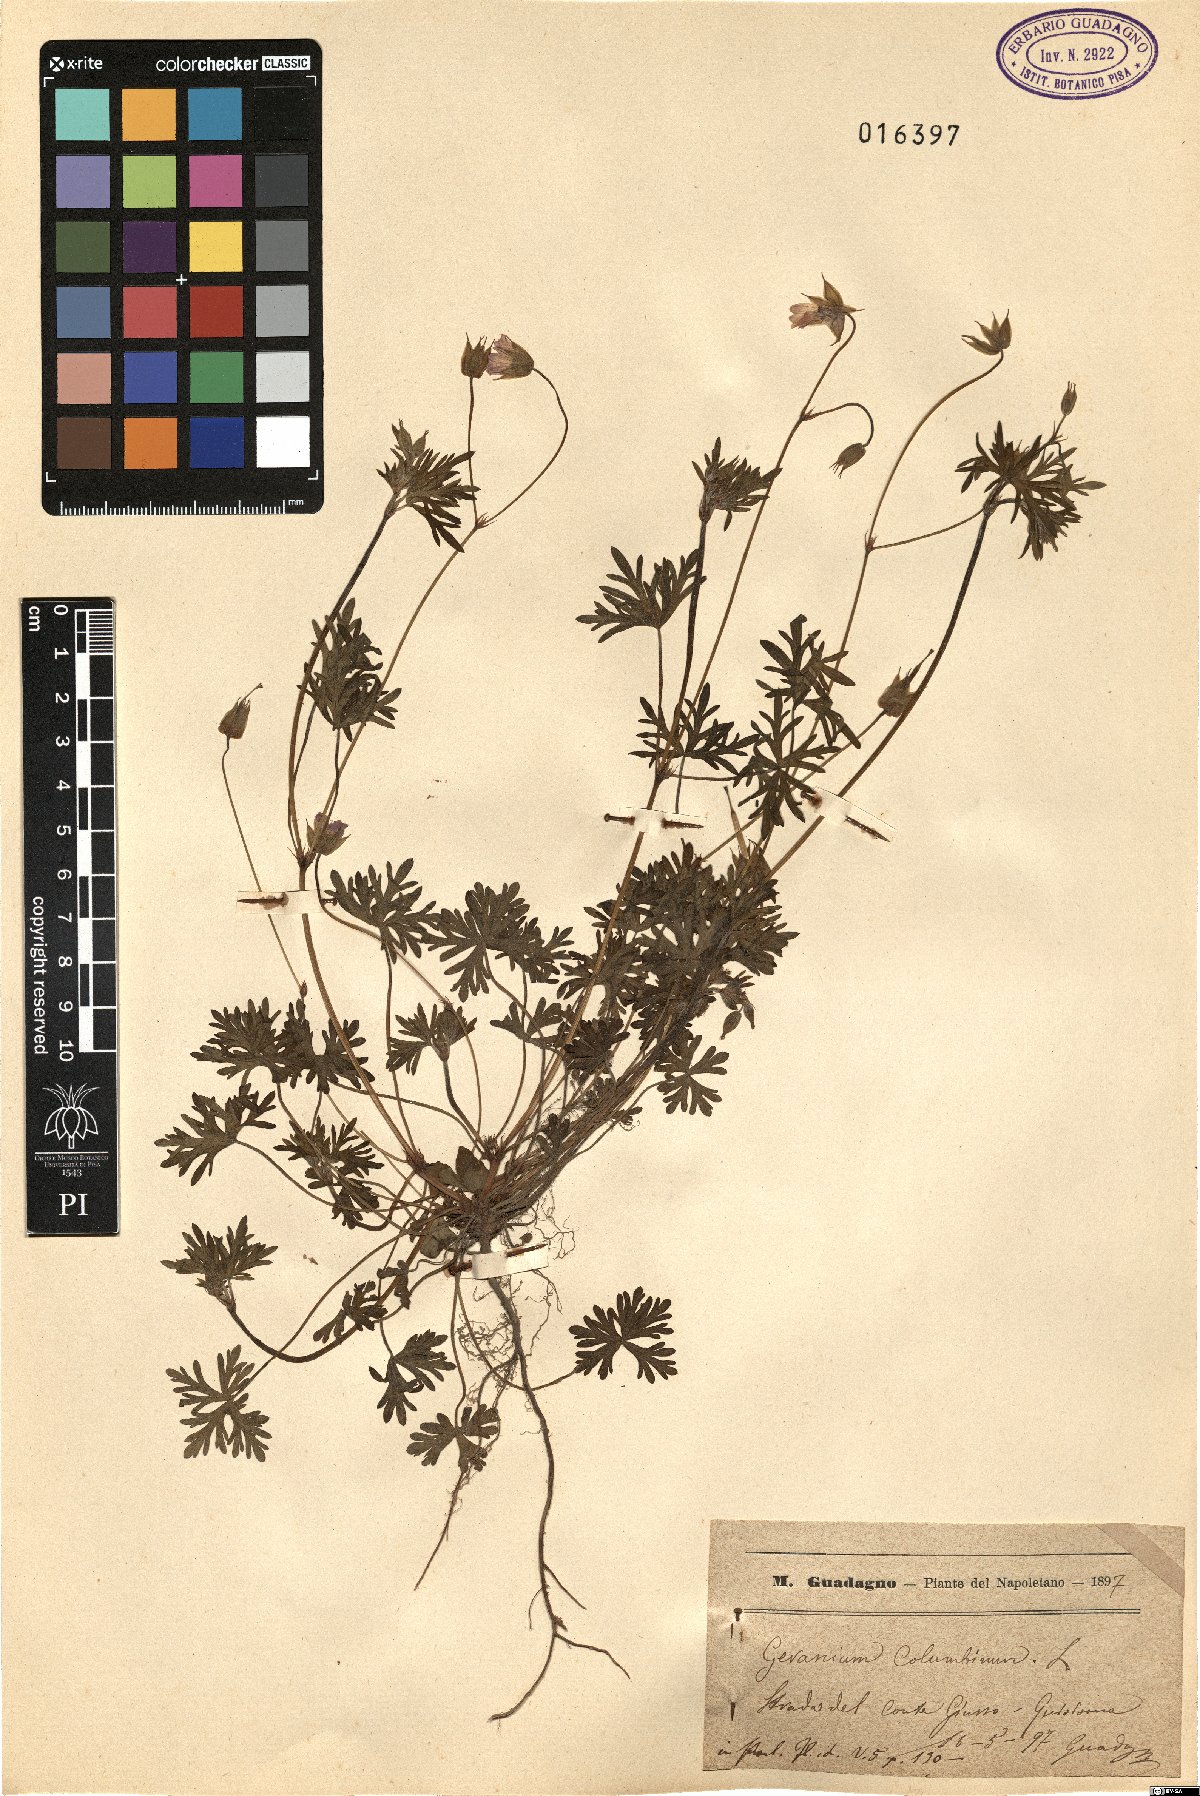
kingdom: Plantae
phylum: Tracheophyta
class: Magnoliopsida
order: Geraniales
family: Geraniaceae
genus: Geranium
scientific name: Geranium columbinum
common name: Long-stalked crane's-bill
